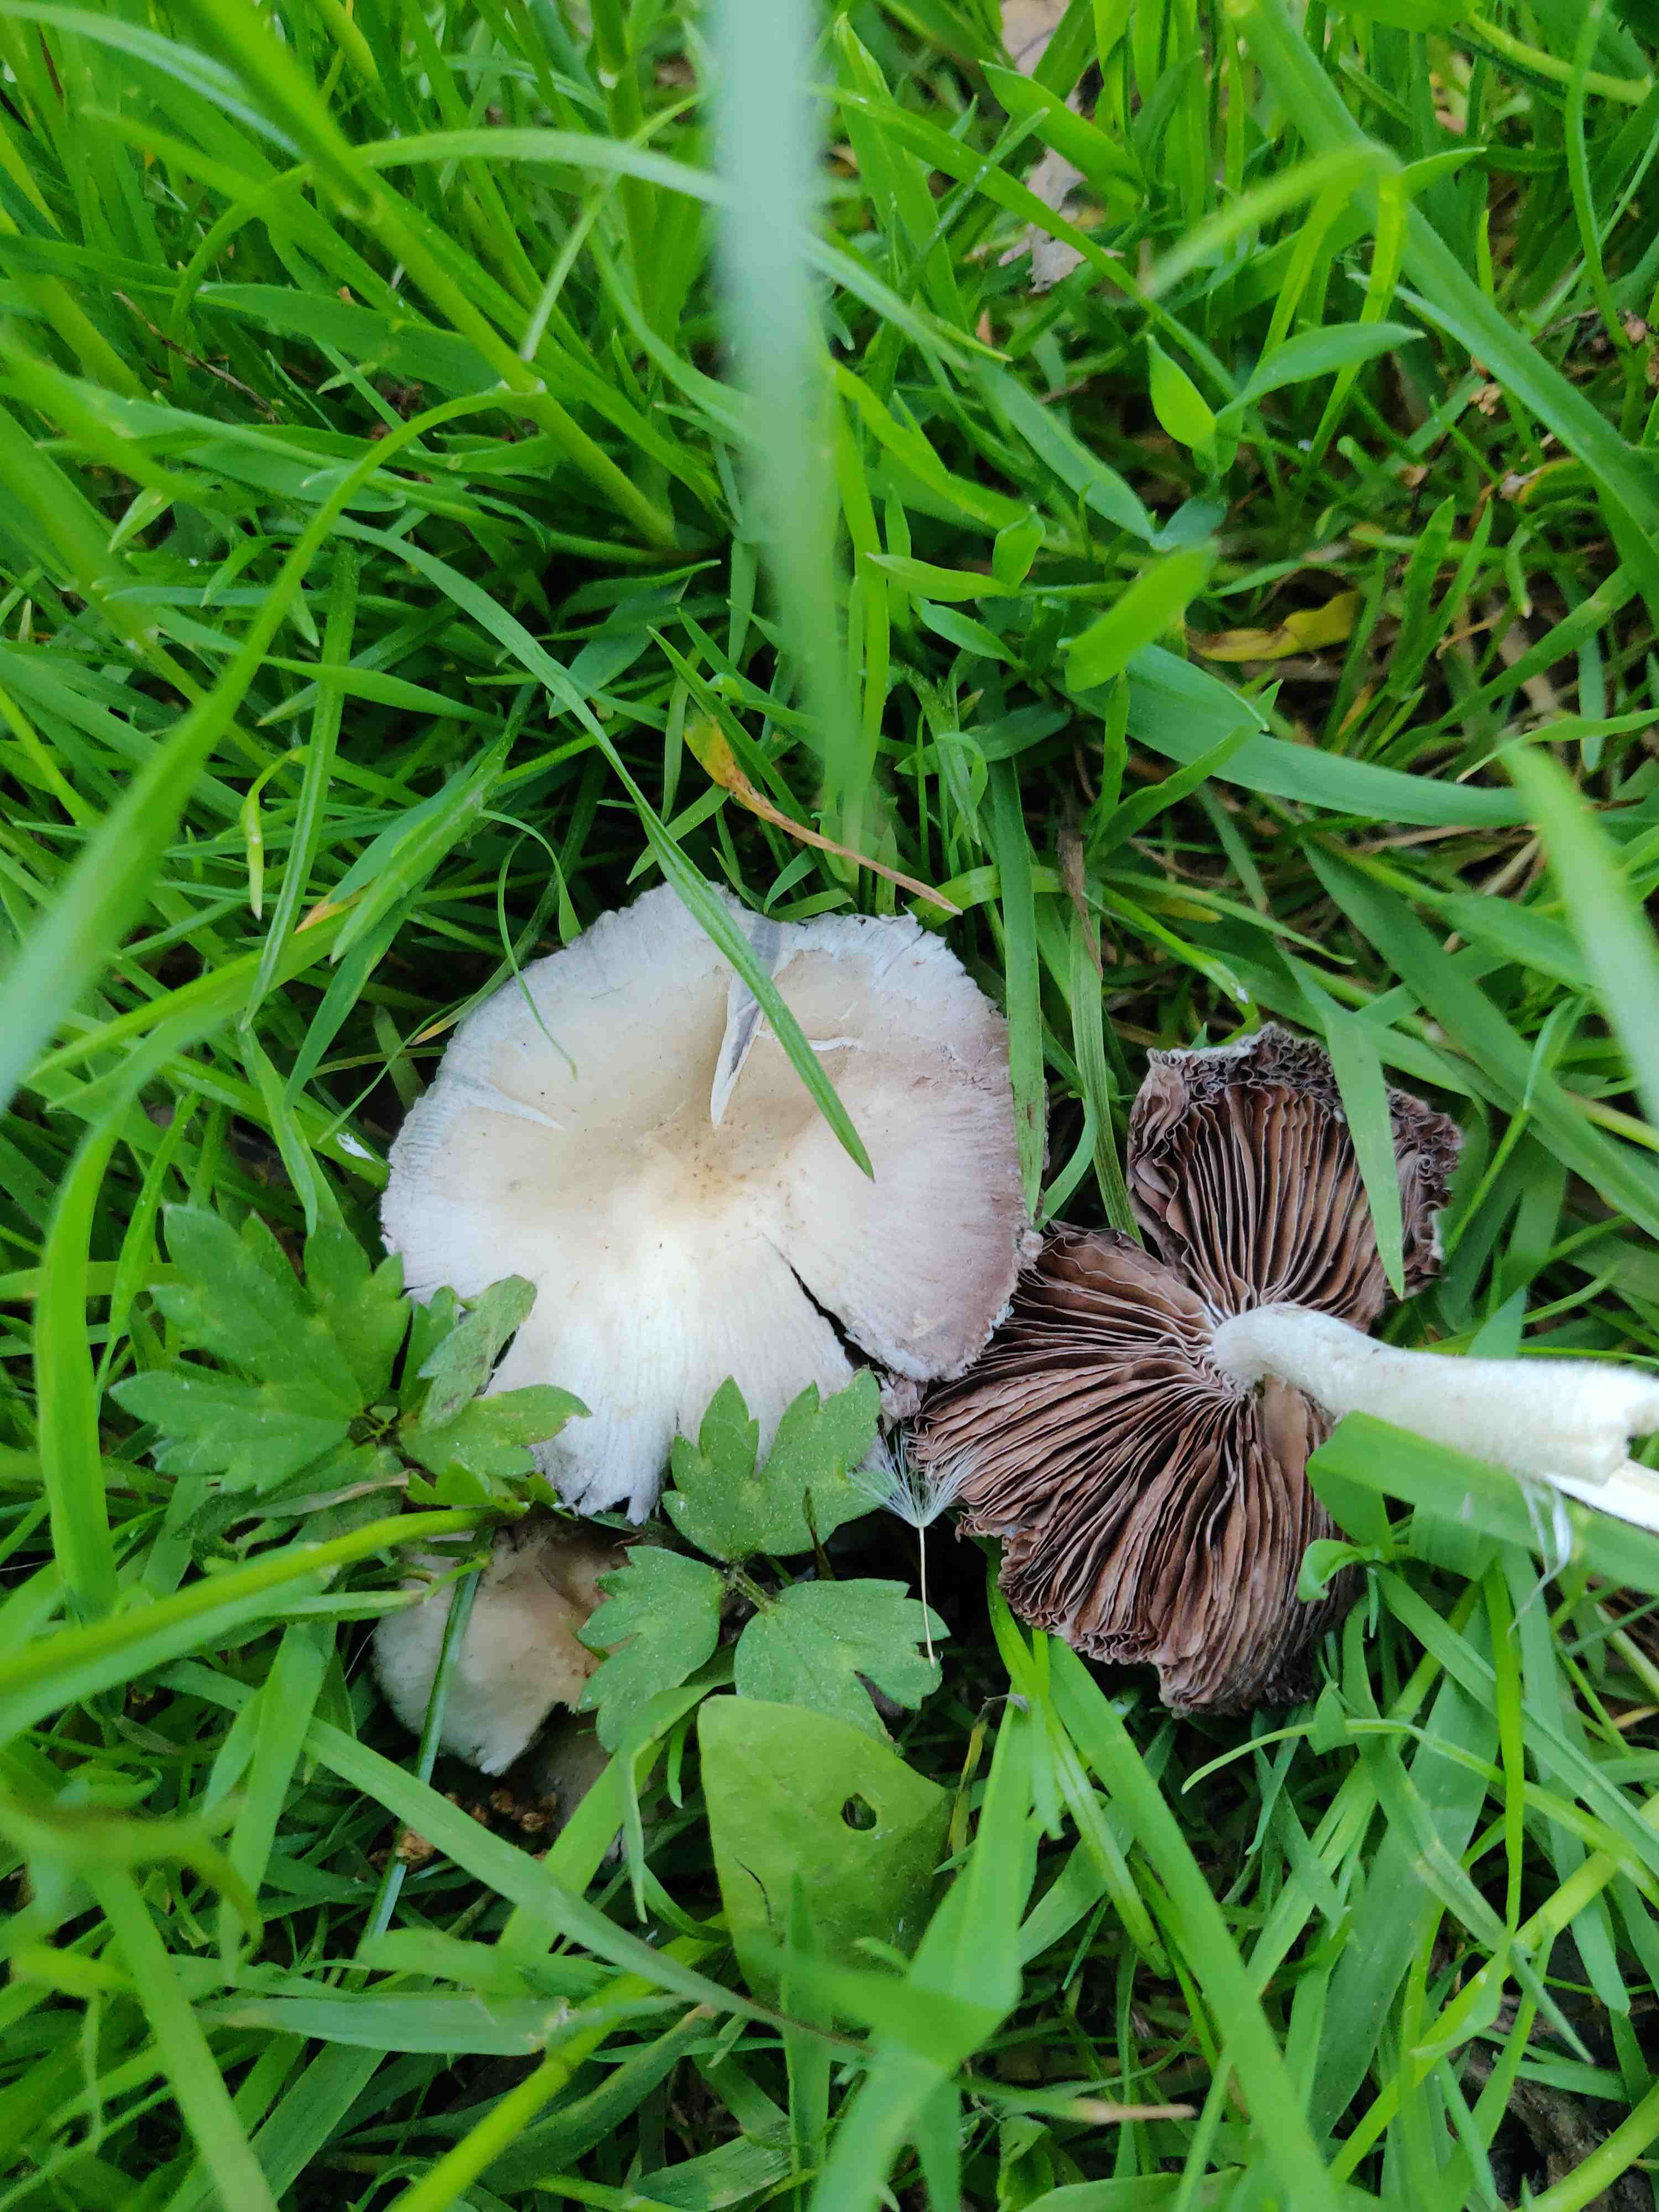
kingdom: Fungi
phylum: Basidiomycota
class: Agaricomycetes
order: Agaricales
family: Psathyrellaceae
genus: Candolleomyces
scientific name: Candolleomyces candolleanus
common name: Candolles mørkhat
